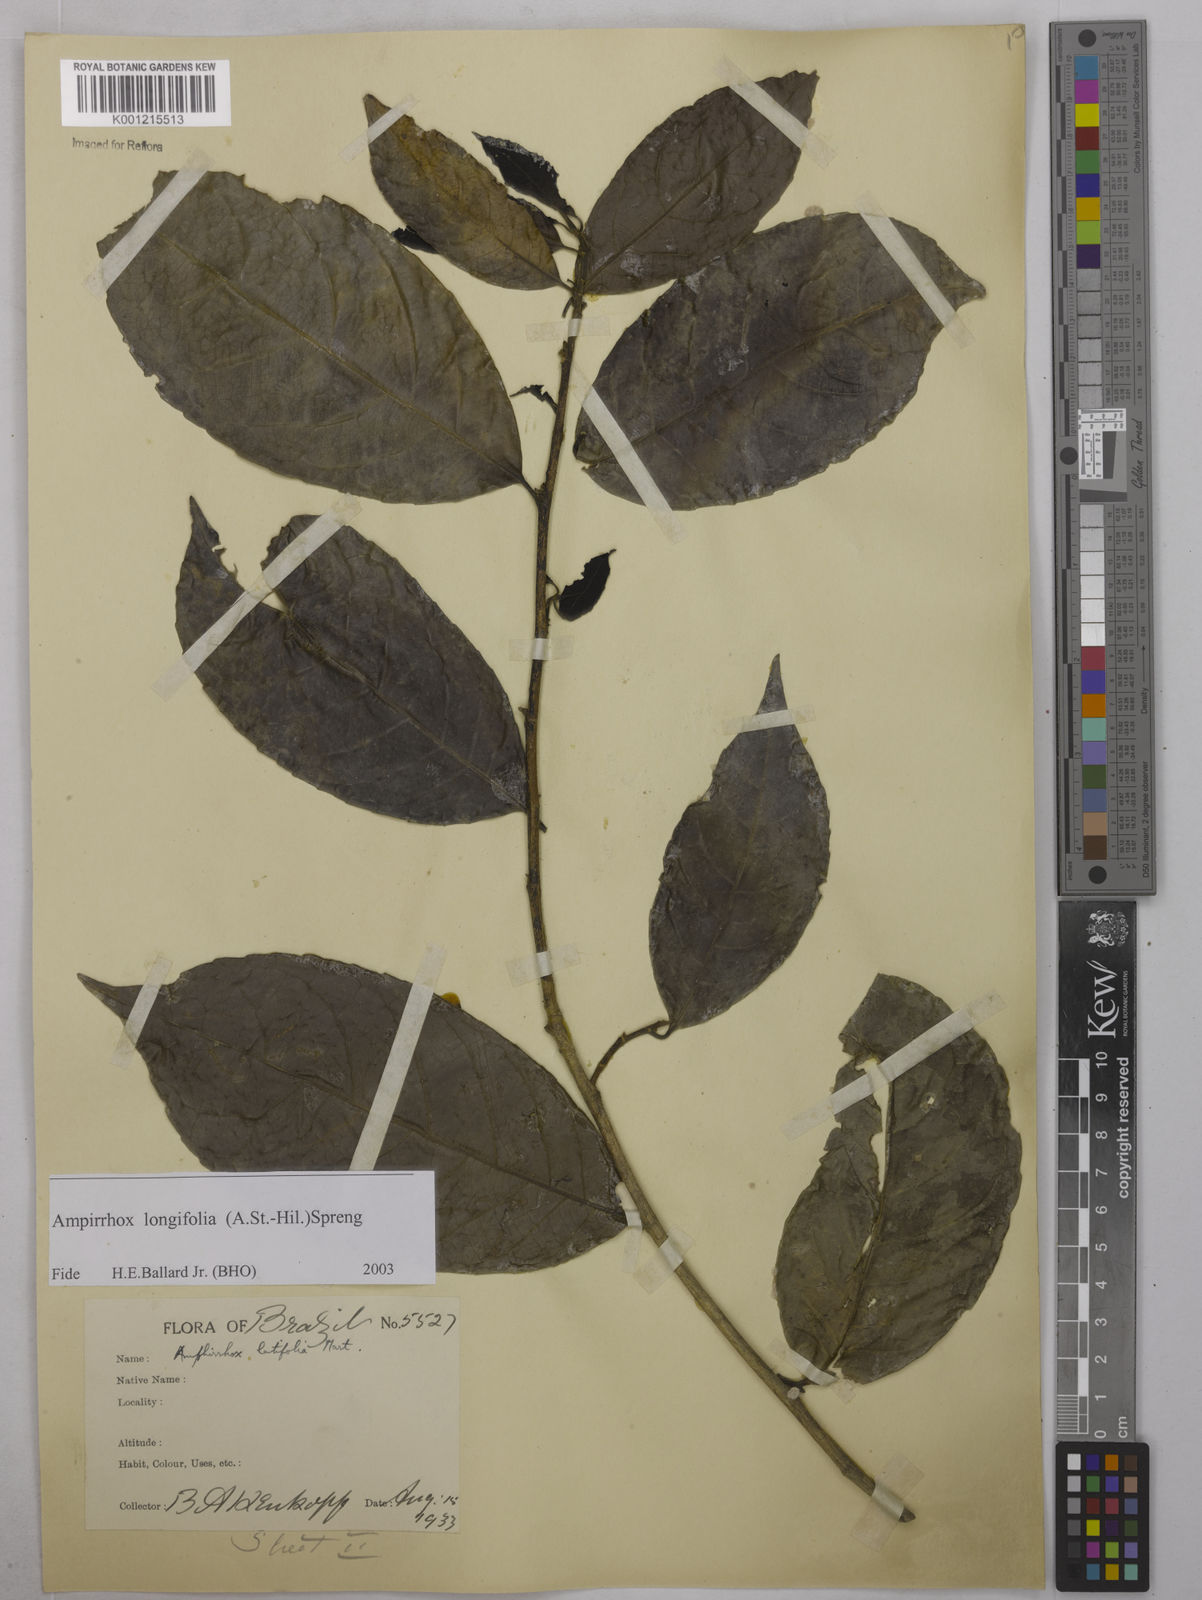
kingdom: Plantae
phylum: Tracheophyta
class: Magnoliopsida
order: Malpighiales
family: Violaceae
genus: Amphirrhox
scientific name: Amphirrhox longifolia
